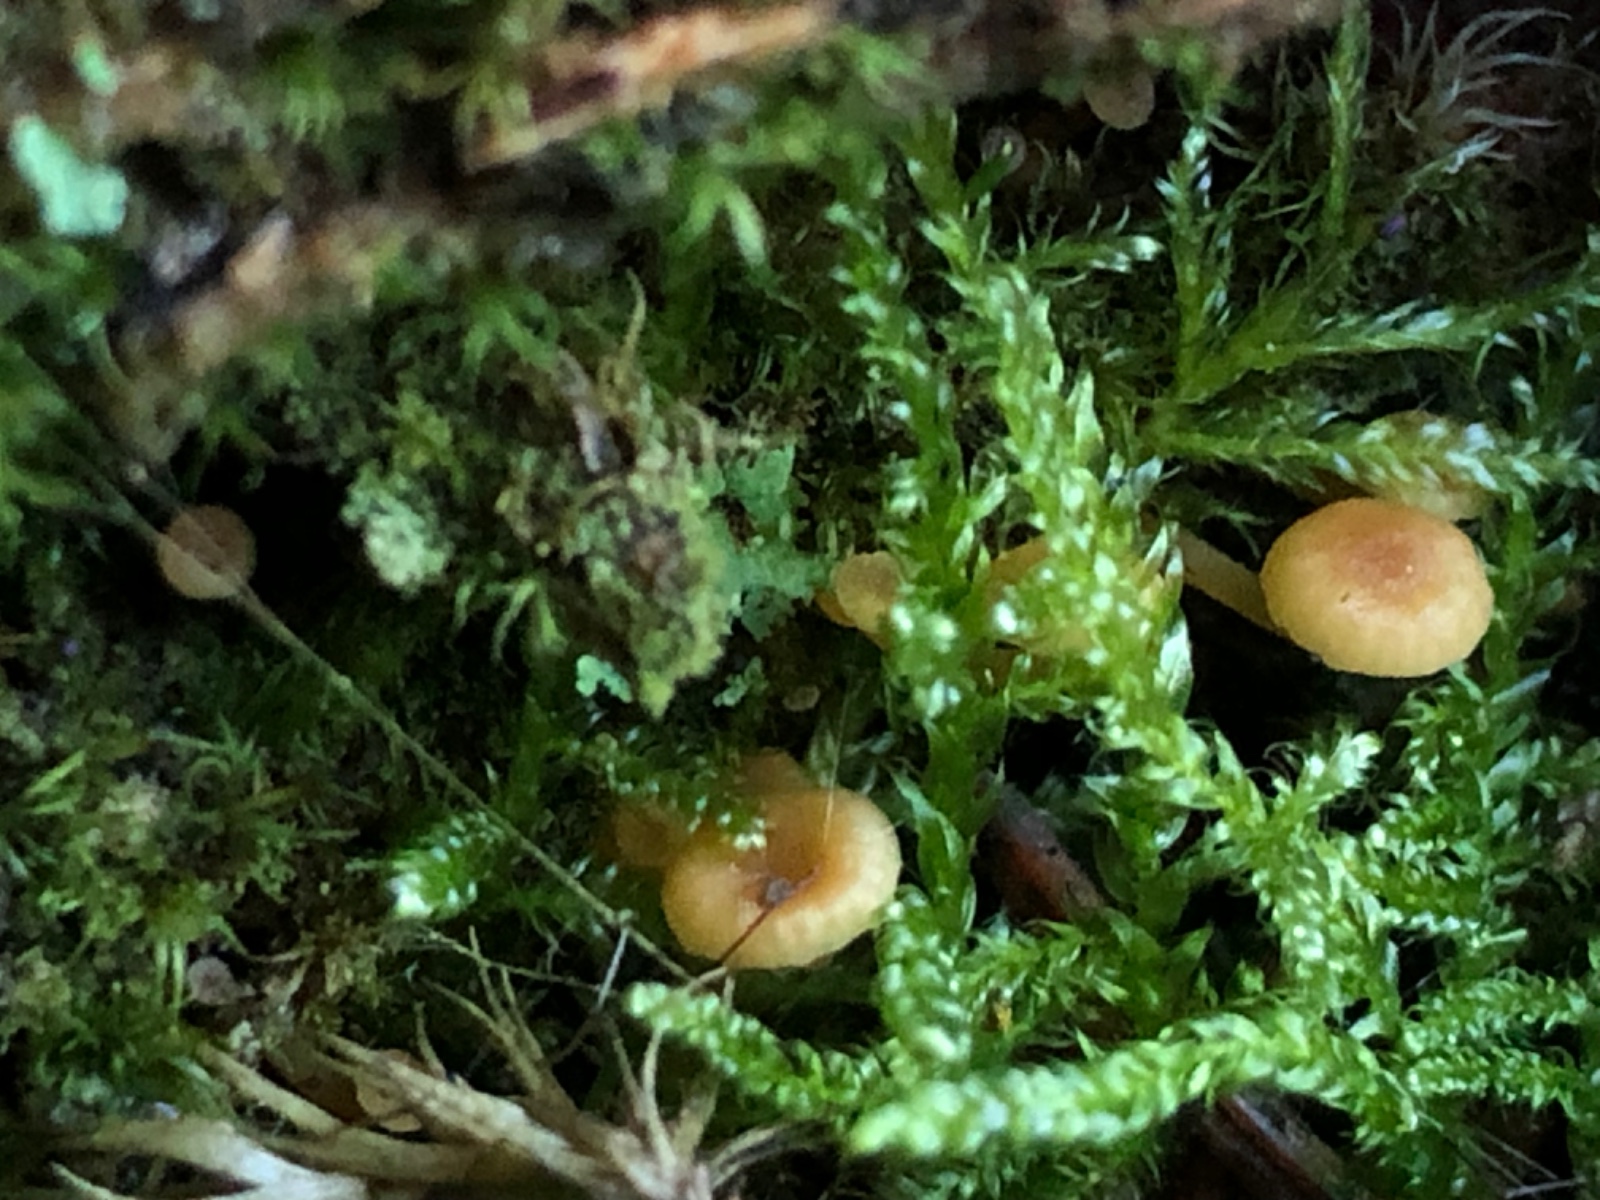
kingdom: Fungi
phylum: Basidiomycota
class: Agaricomycetes
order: Agaricales
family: Mycenaceae
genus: Xeromphalina
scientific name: Xeromphalina campanella
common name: klokke-tørhat
